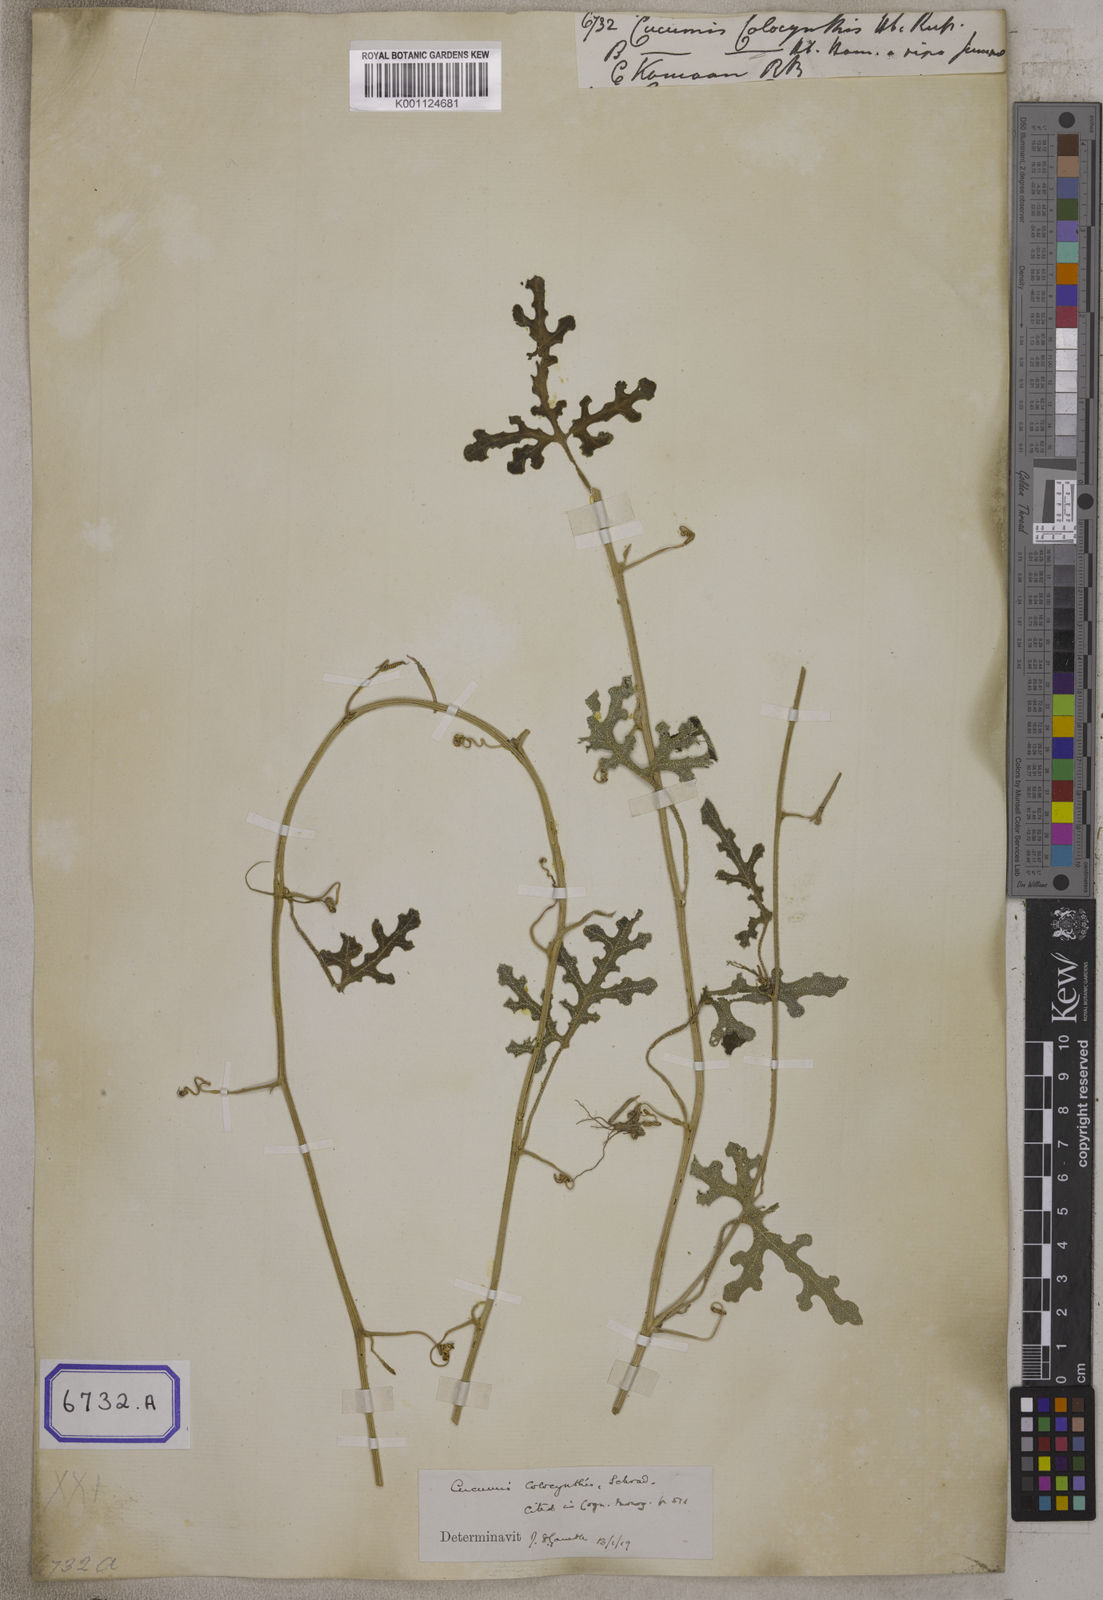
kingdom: Plantae
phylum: Tracheophyta
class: Magnoliopsida
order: Cucurbitales
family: Cucurbitaceae
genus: Citrullus
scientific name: Citrullus colocynthis
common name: Colocynth
